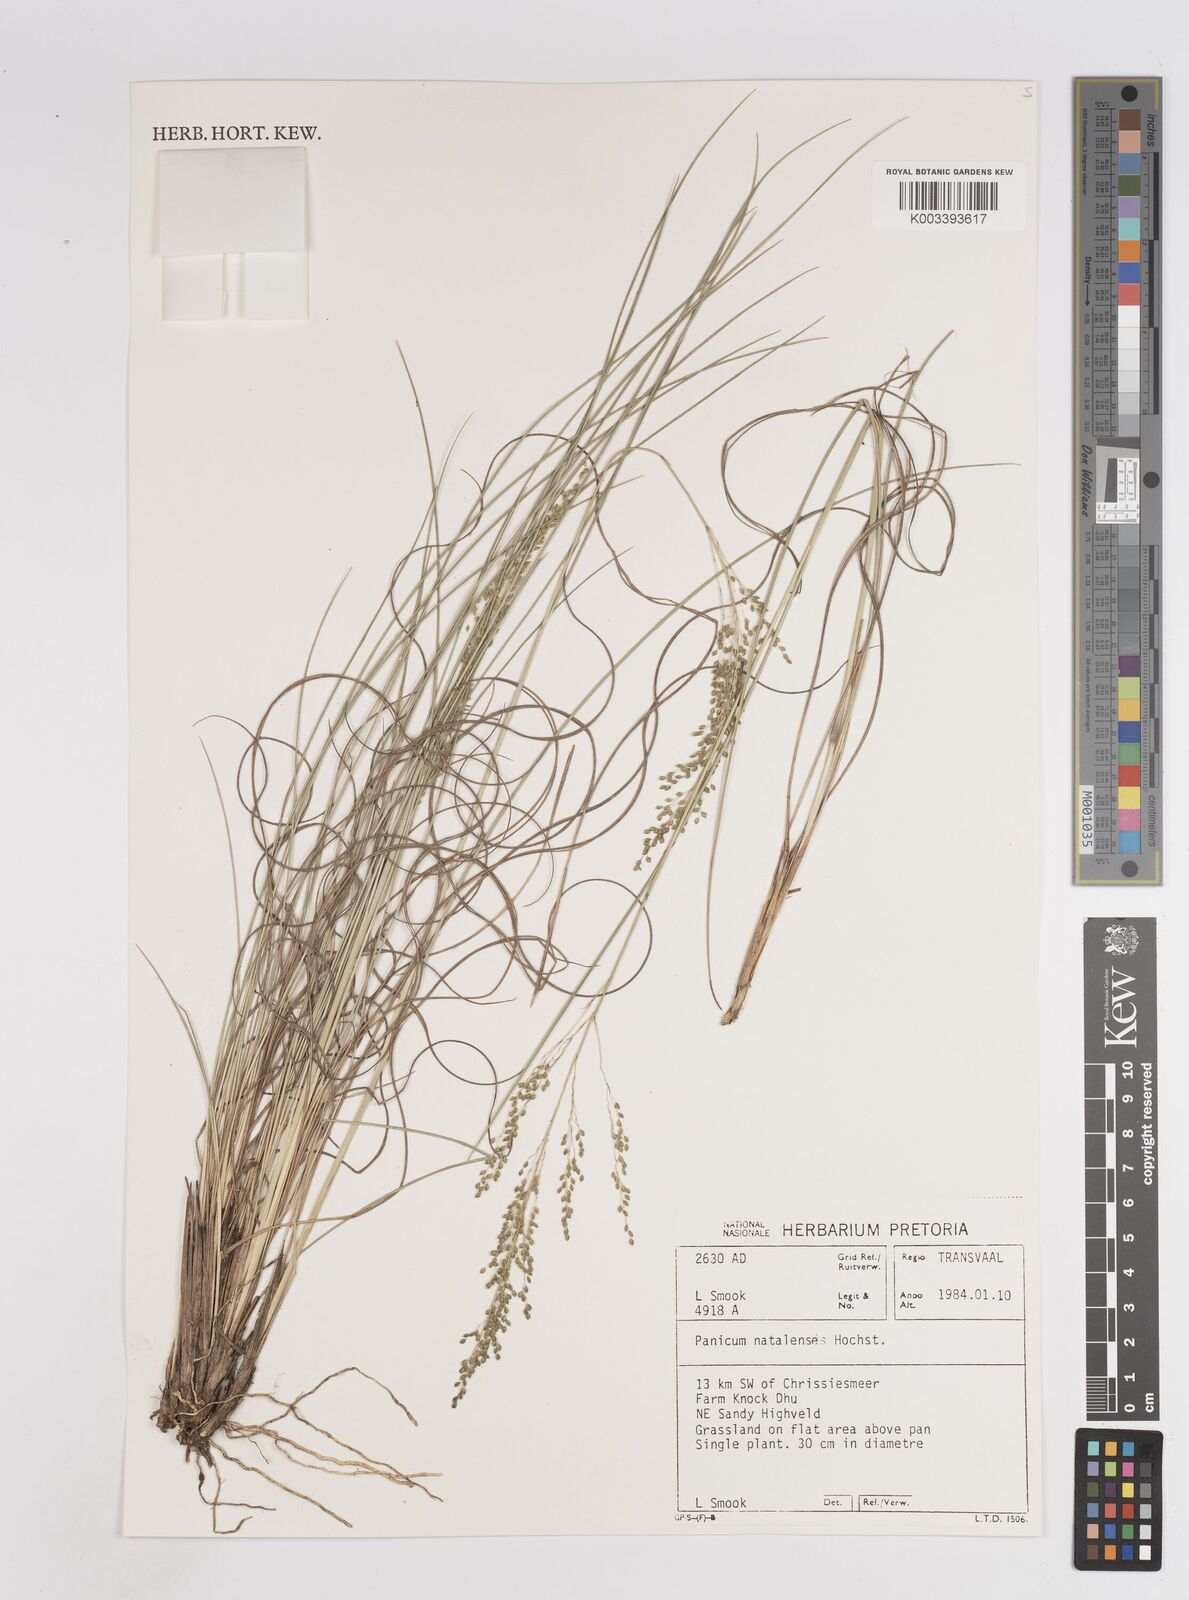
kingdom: Plantae
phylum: Tracheophyta
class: Liliopsida
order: Poales
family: Poaceae
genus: Trichanthecium
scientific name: Trichanthecium natalense
